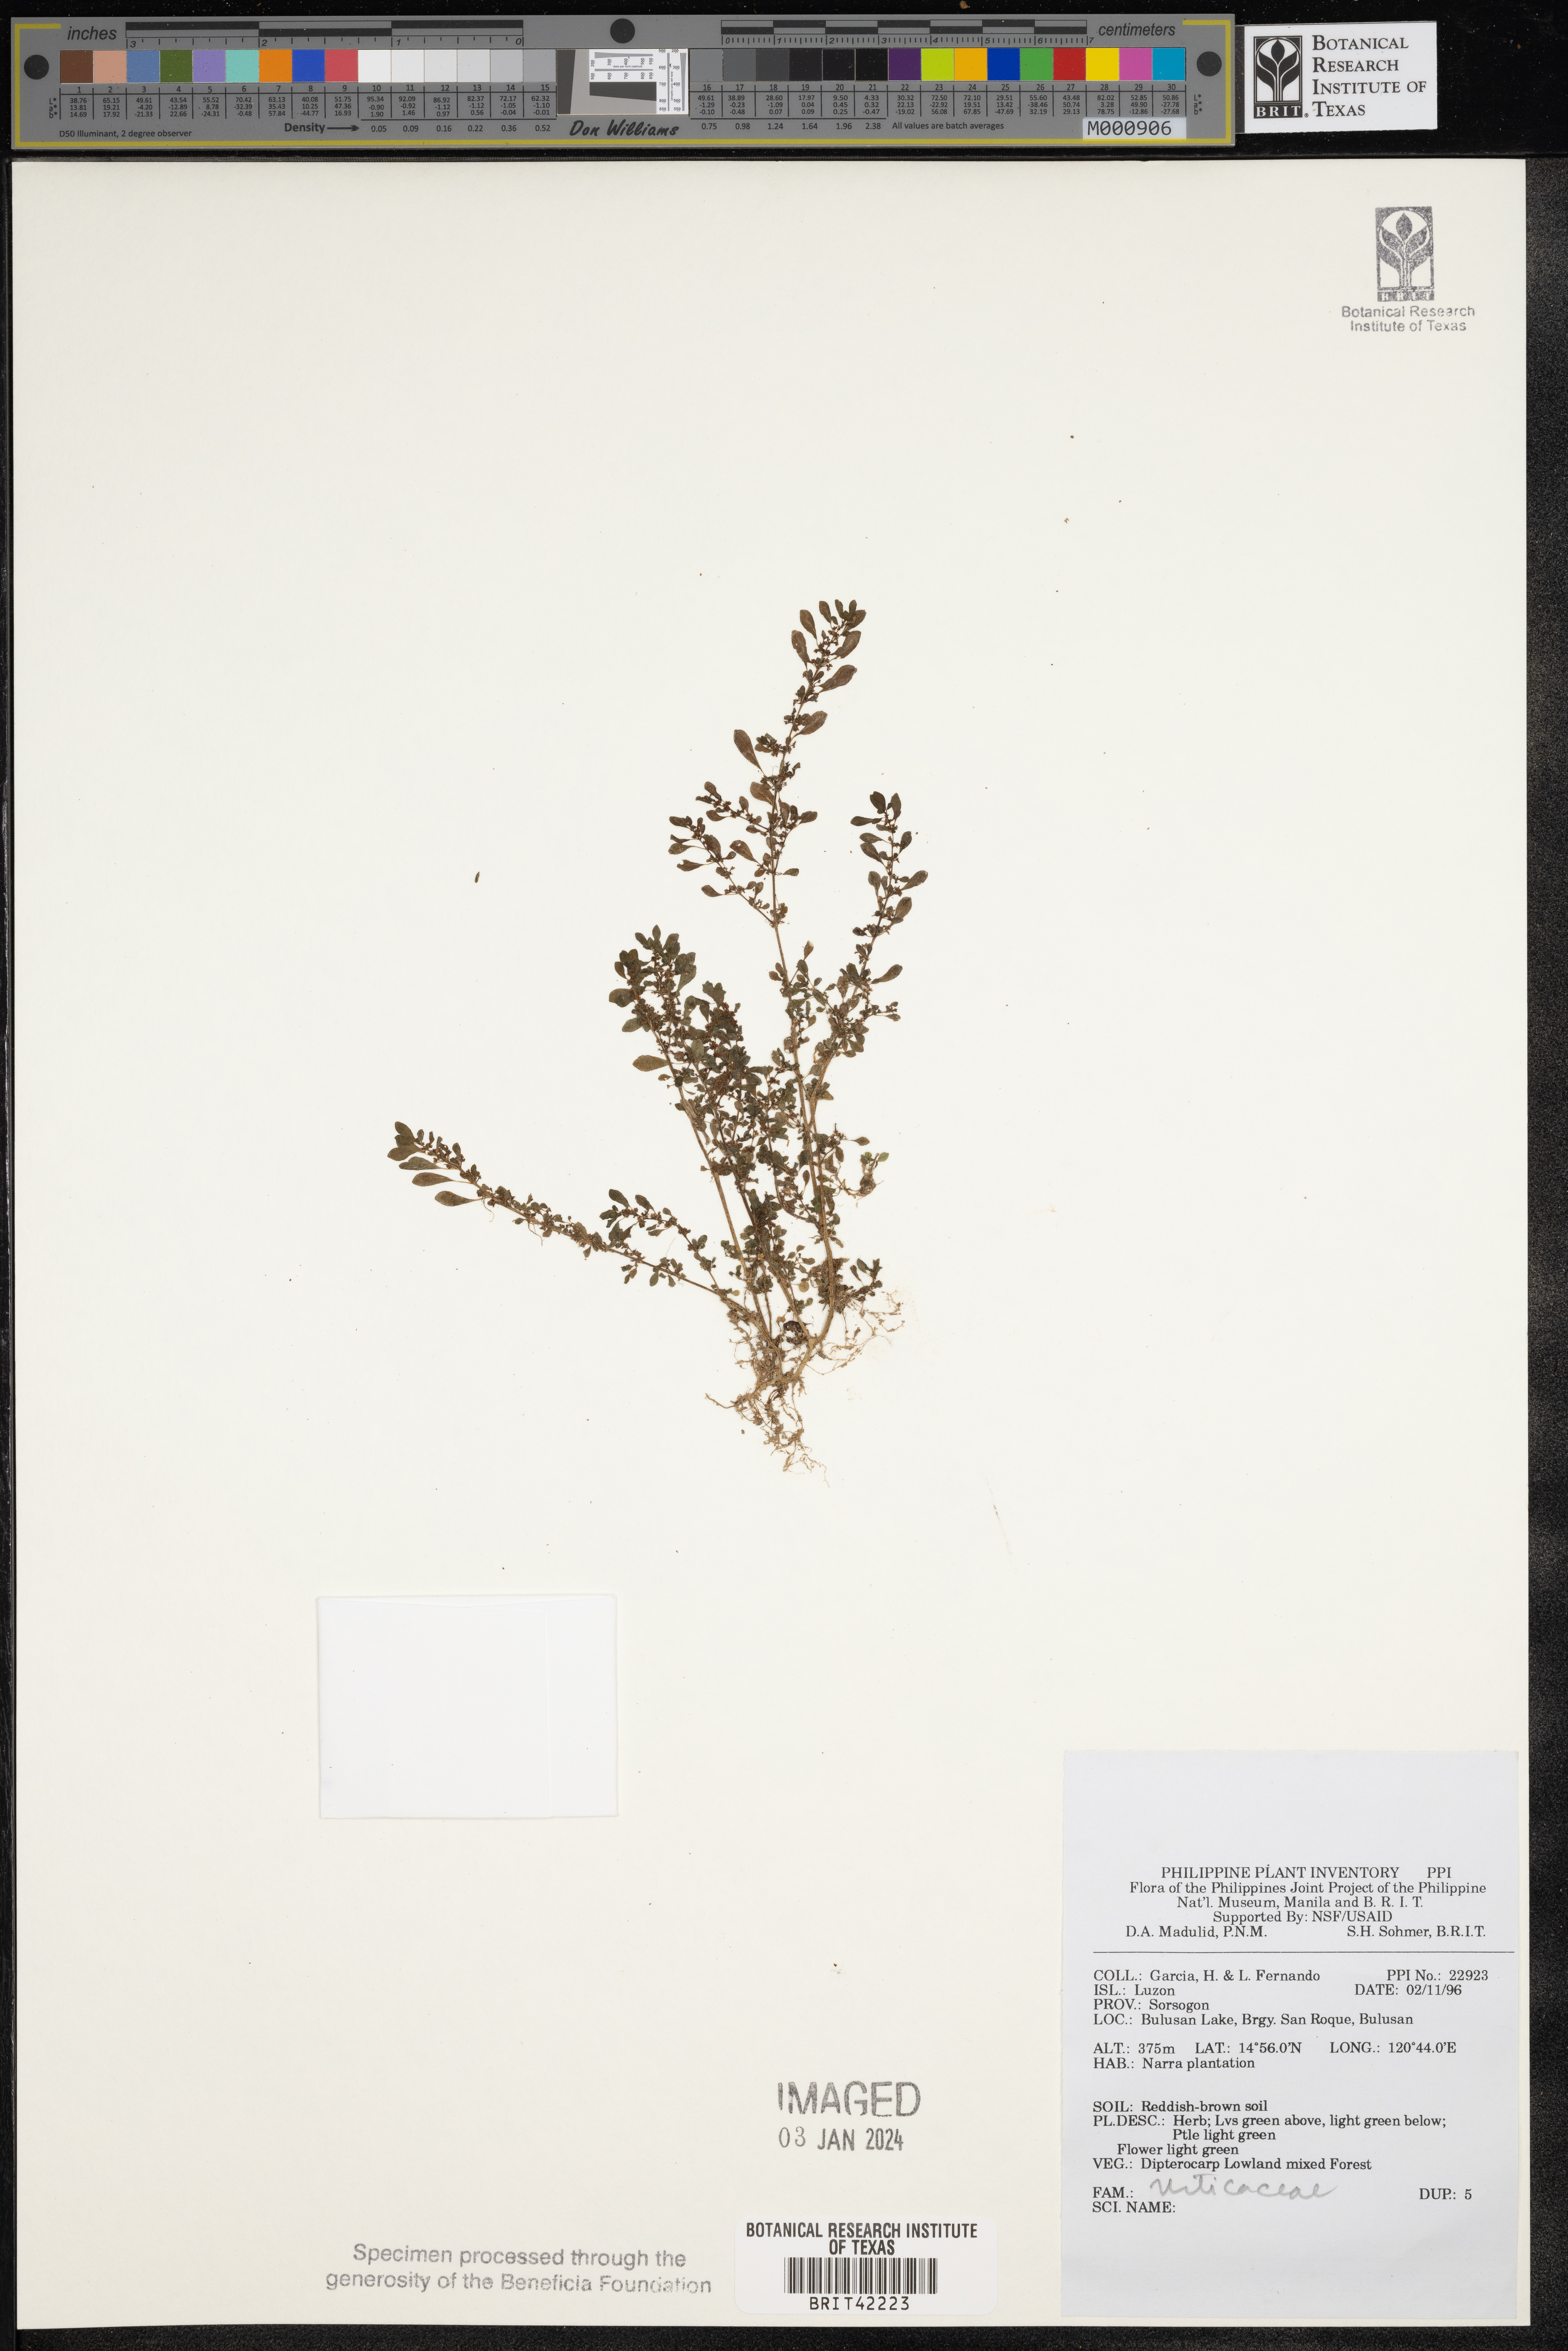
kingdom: Plantae
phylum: Tracheophyta
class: Magnoliopsida
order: Rosales
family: Urticaceae
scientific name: Urticaceae
